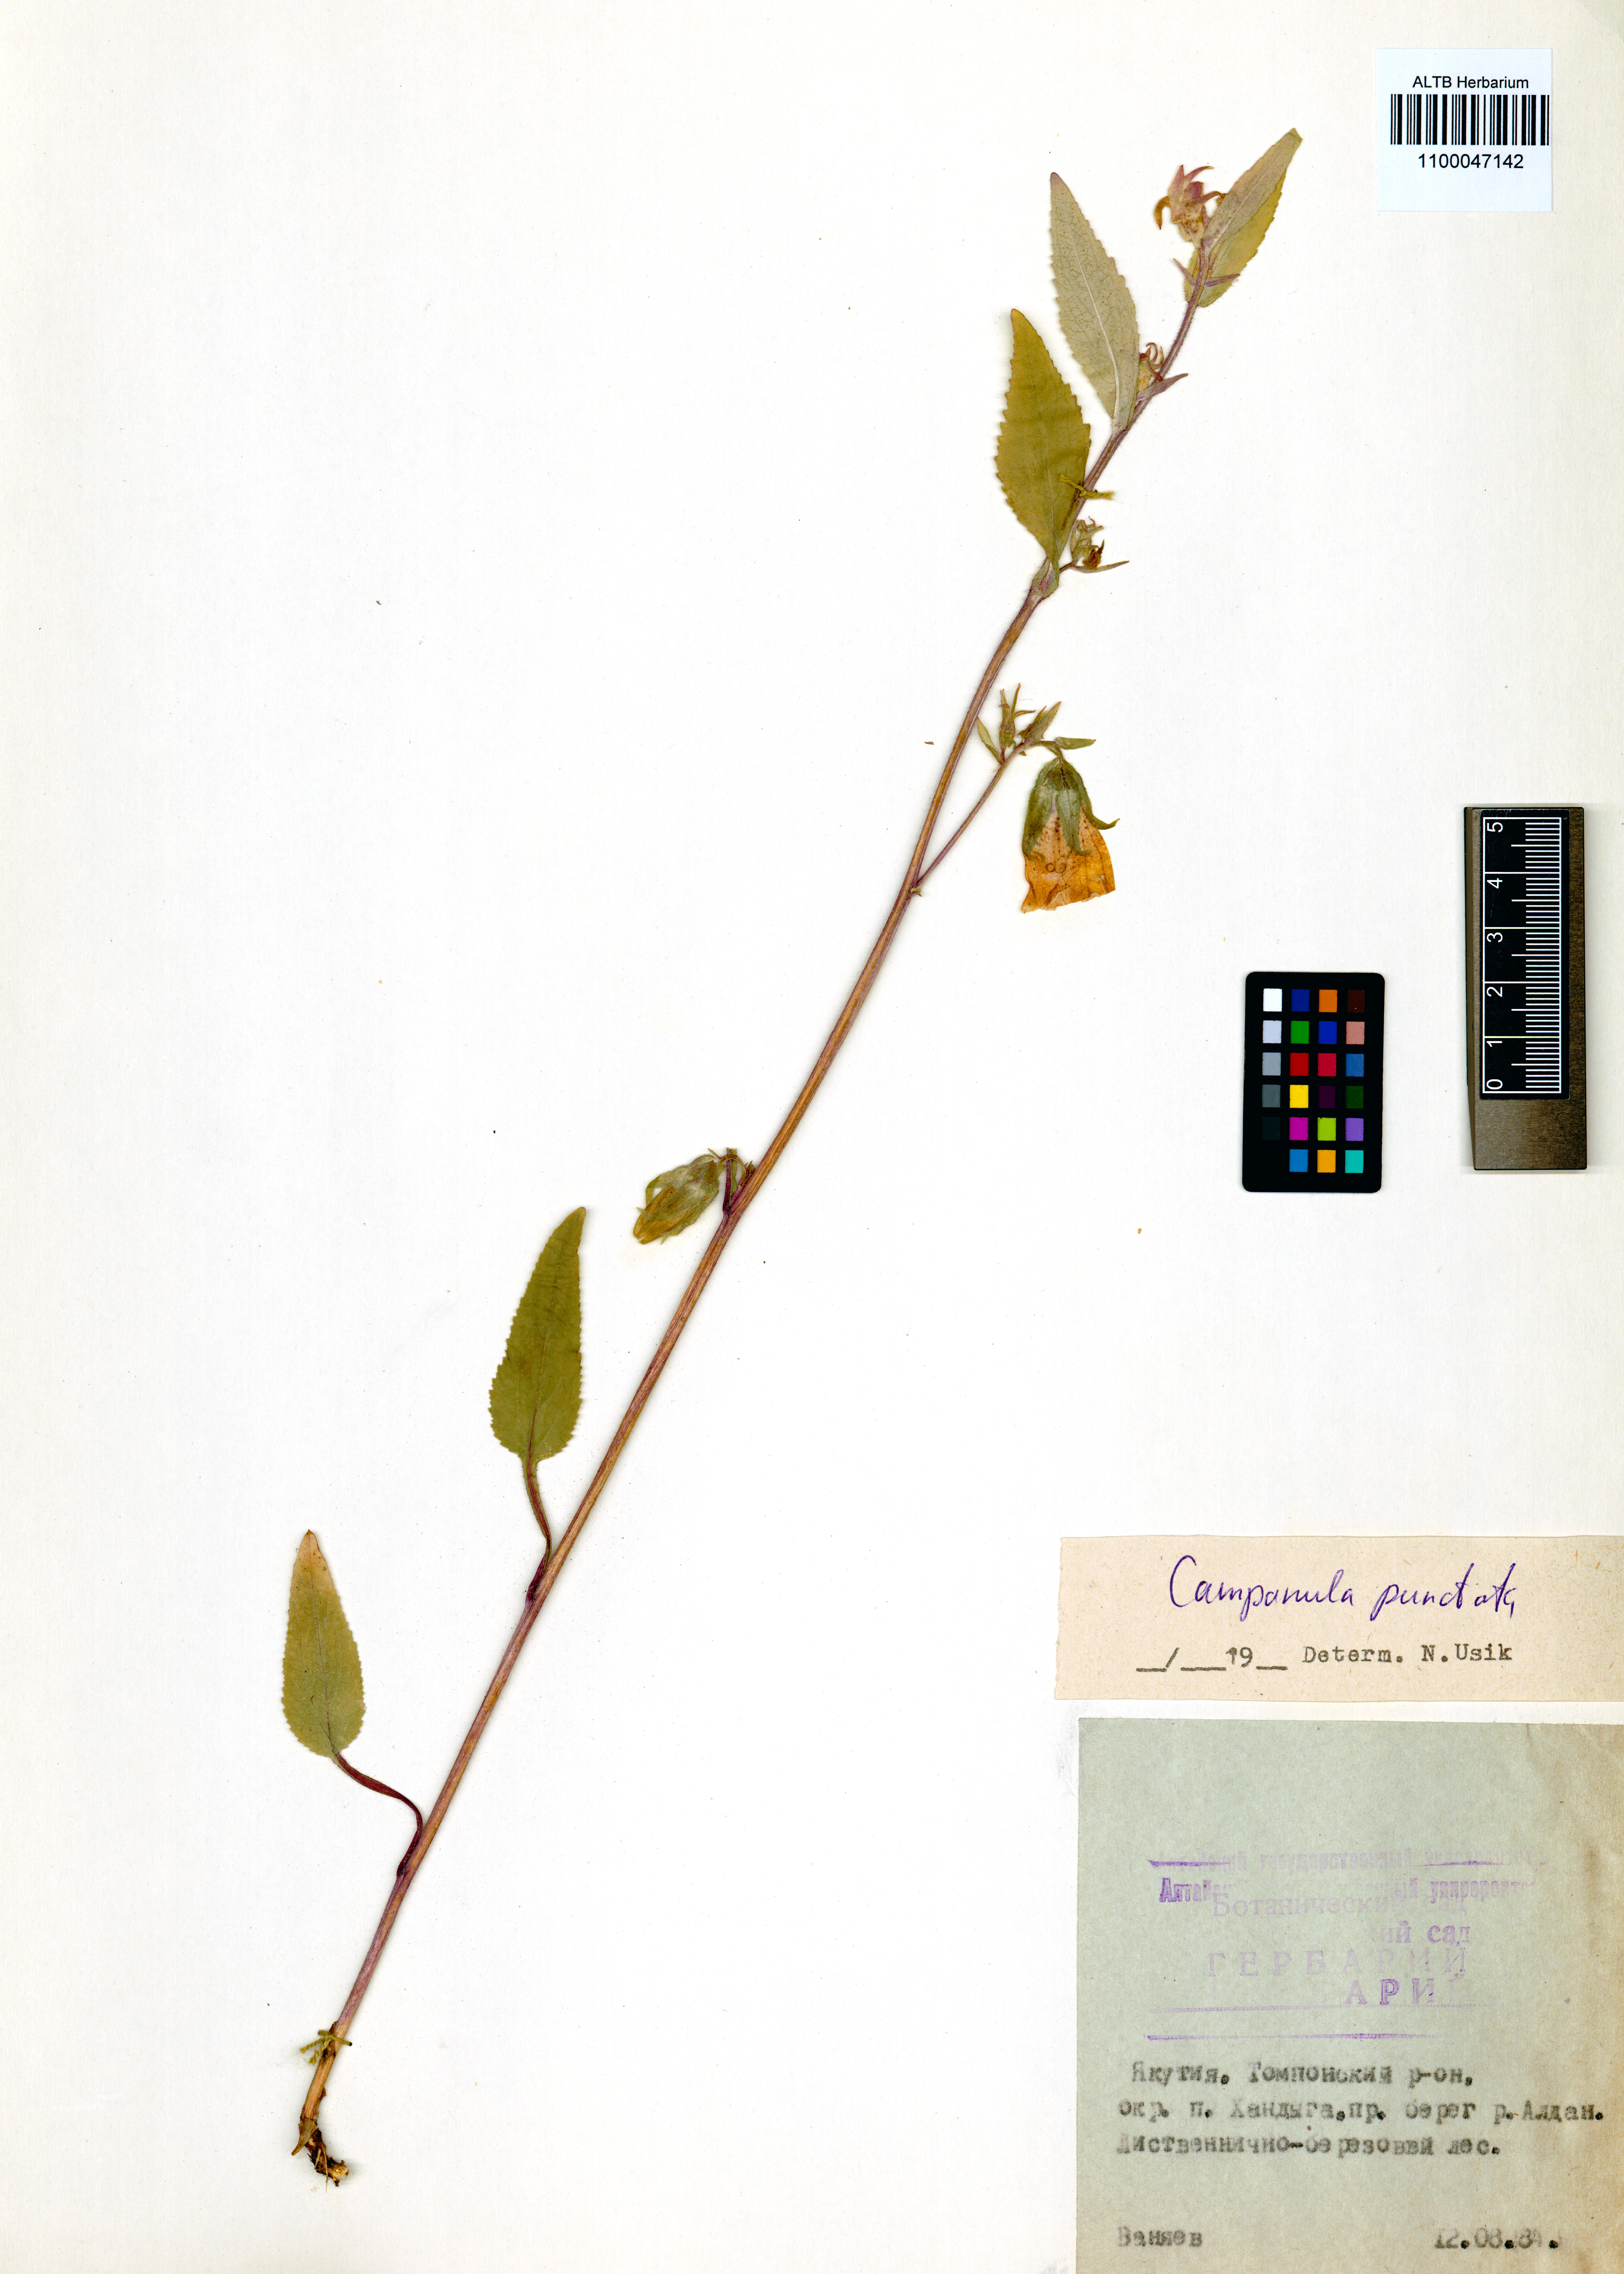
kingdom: Plantae
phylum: Tracheophyta
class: Magnoliopsida
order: Asterales
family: Campanulaceae
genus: Campanula
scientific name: Campanula punctata
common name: Spotted bellflower
